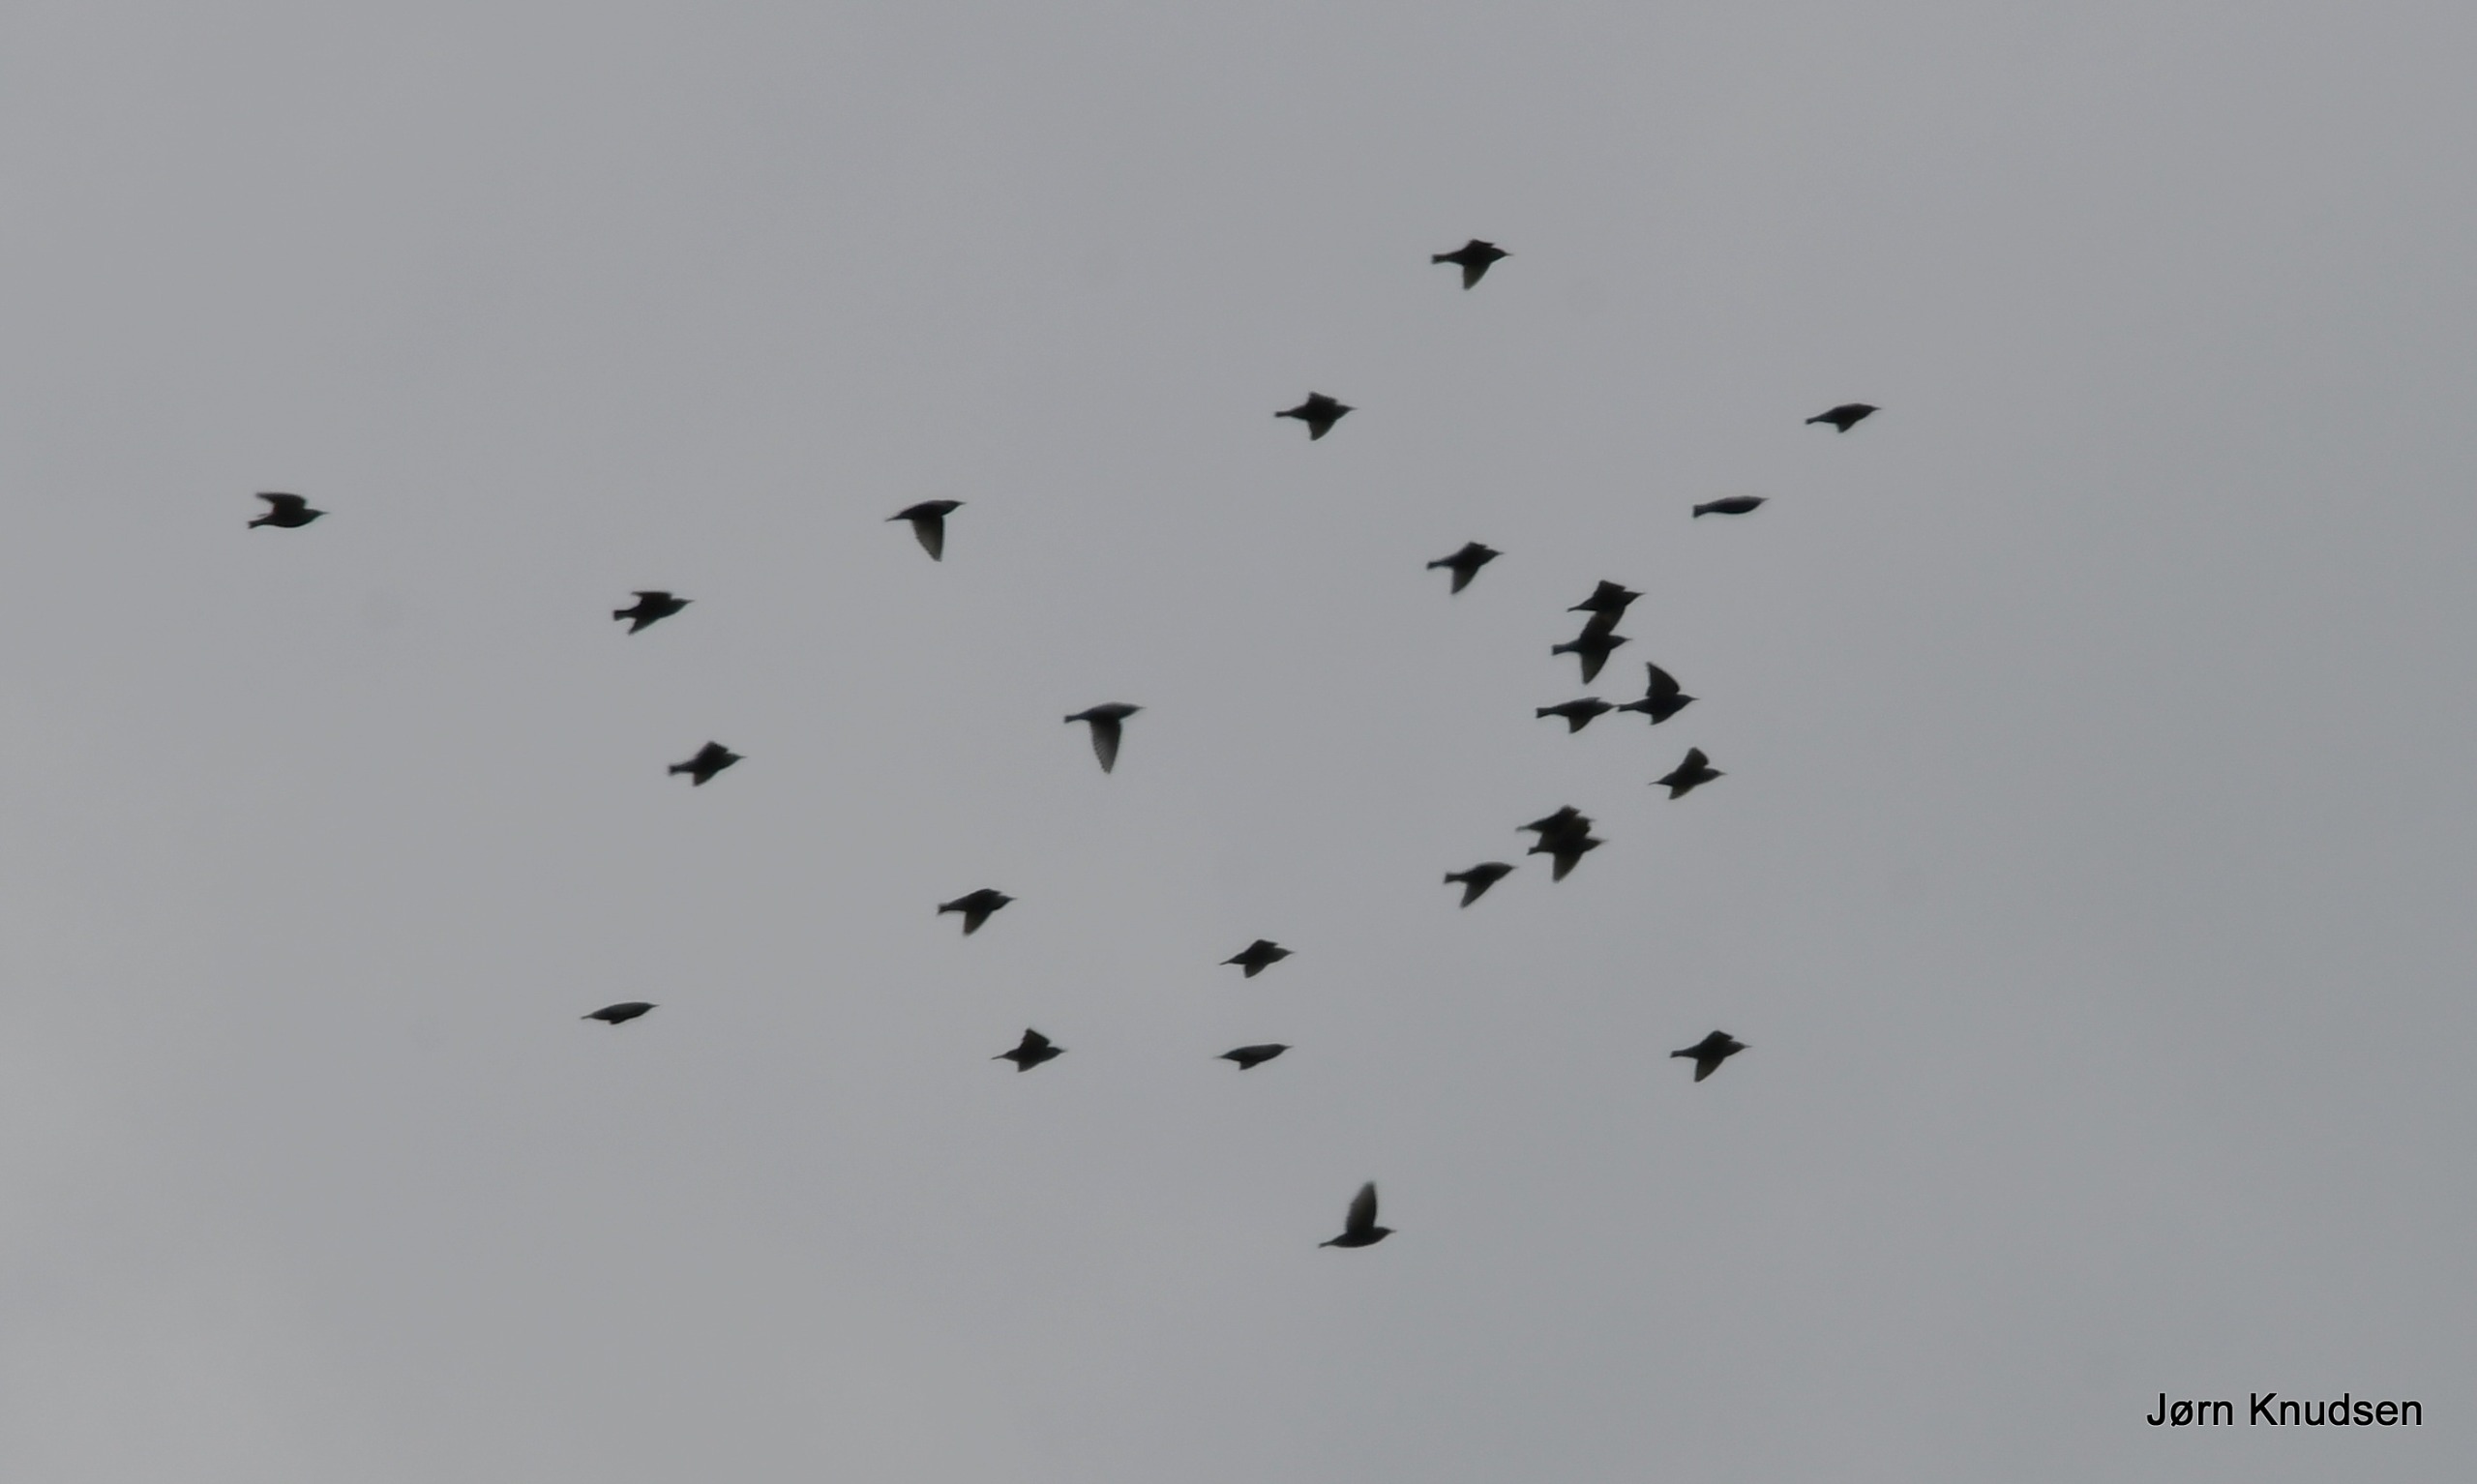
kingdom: Animalia
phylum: Chordata
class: Aves
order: Passeriformes
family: Sturnidae
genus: Sturnus
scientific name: Sturnus vulgaris
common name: Stær
